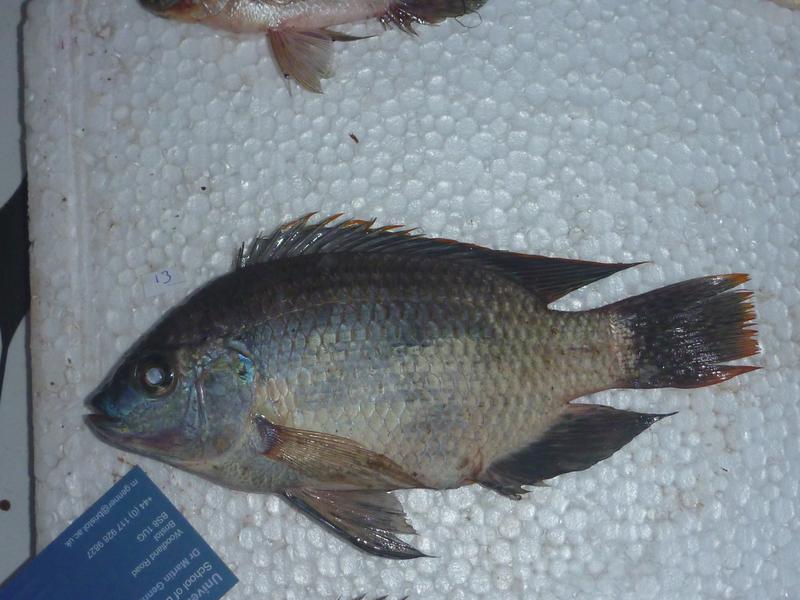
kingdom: Animalia
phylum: Chordata
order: Perciformes
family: Cichlidae
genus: Oreochromis
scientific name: Oreochromis upembae
